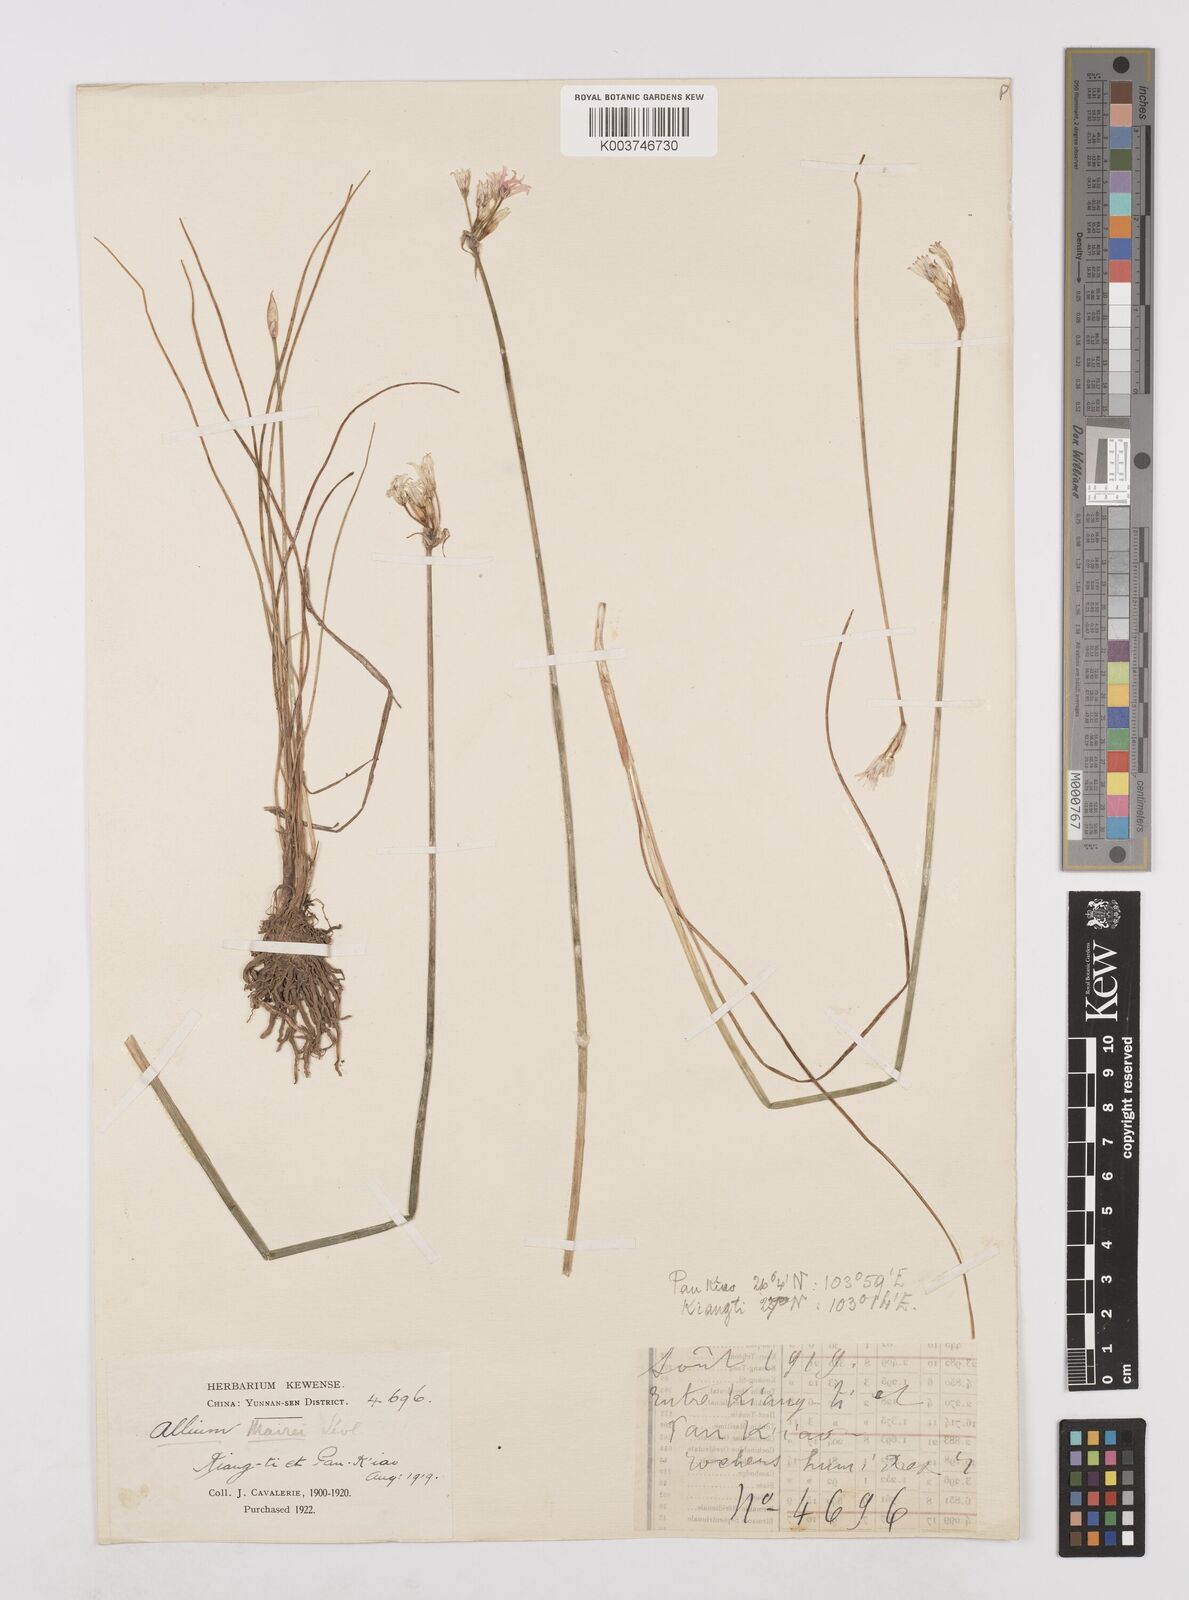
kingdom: Plantae
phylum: Tracheophyta
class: Liliopsida
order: Asparagales
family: Amaryllidaceae
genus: Allium
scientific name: Allium mairei
